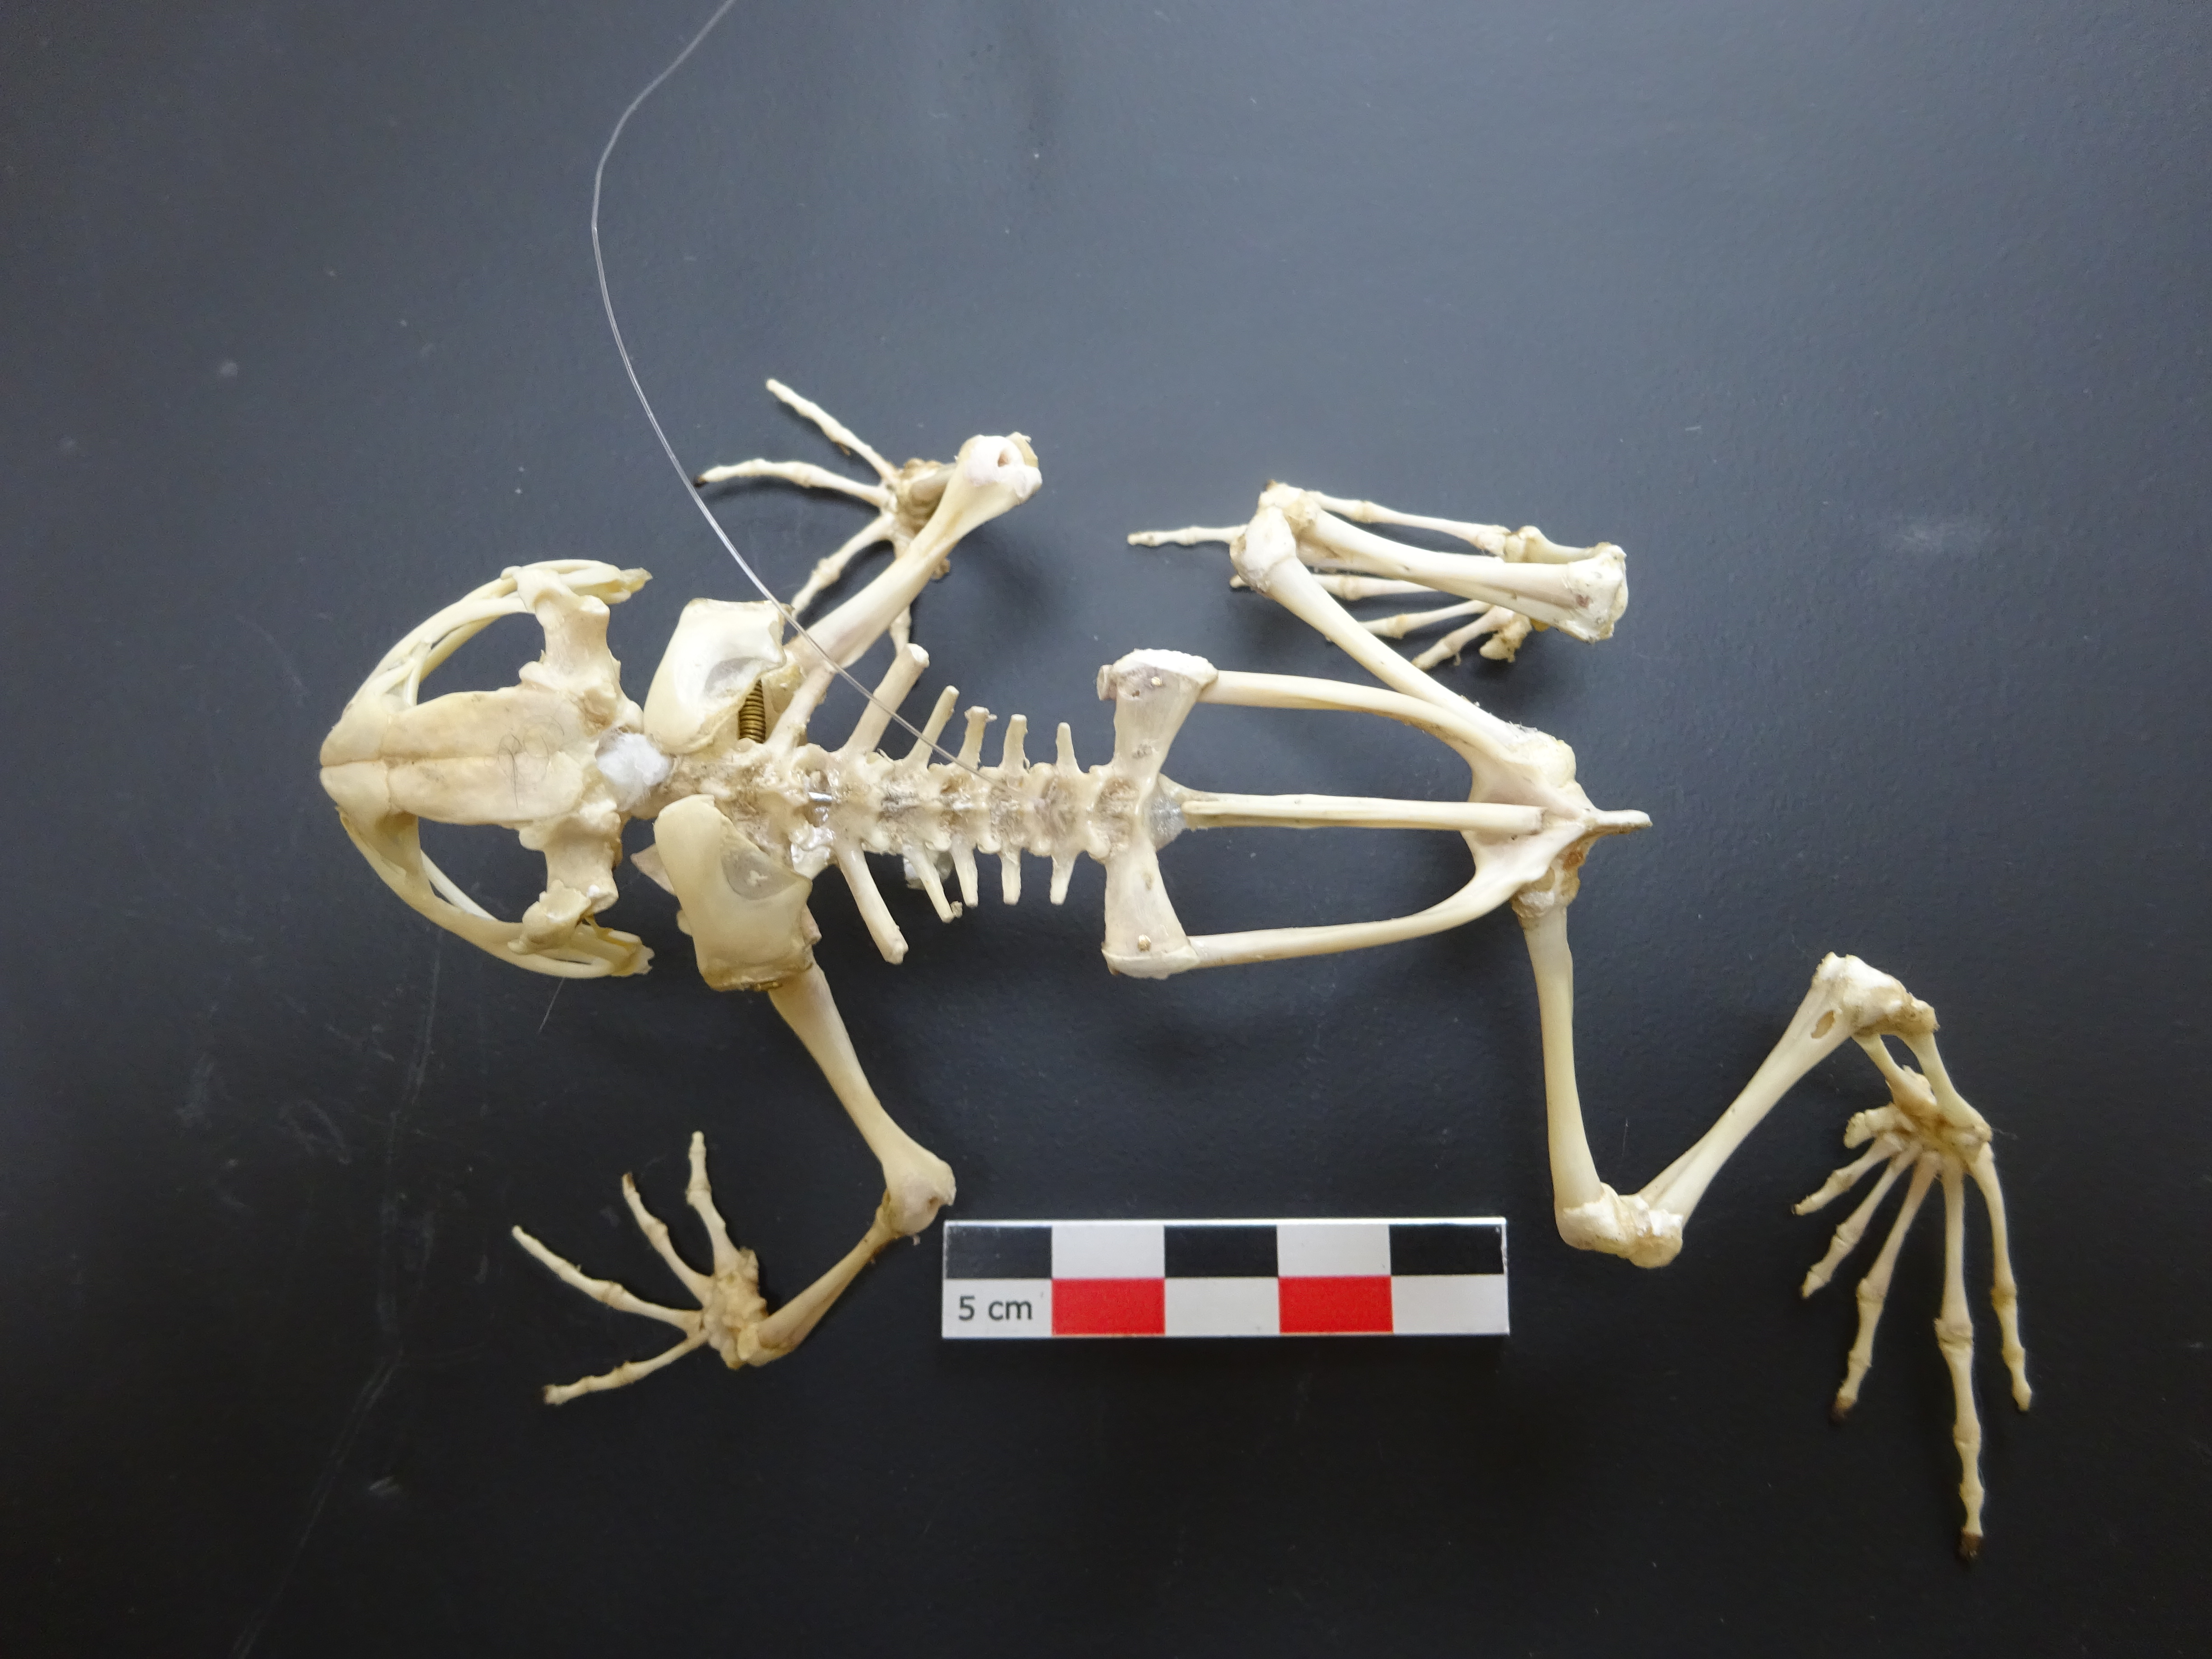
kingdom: Animalia
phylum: Chordata
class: Amphibia
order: Anura
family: Bufonidae
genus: Bufo
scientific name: Bufo bufo
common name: Common toad
